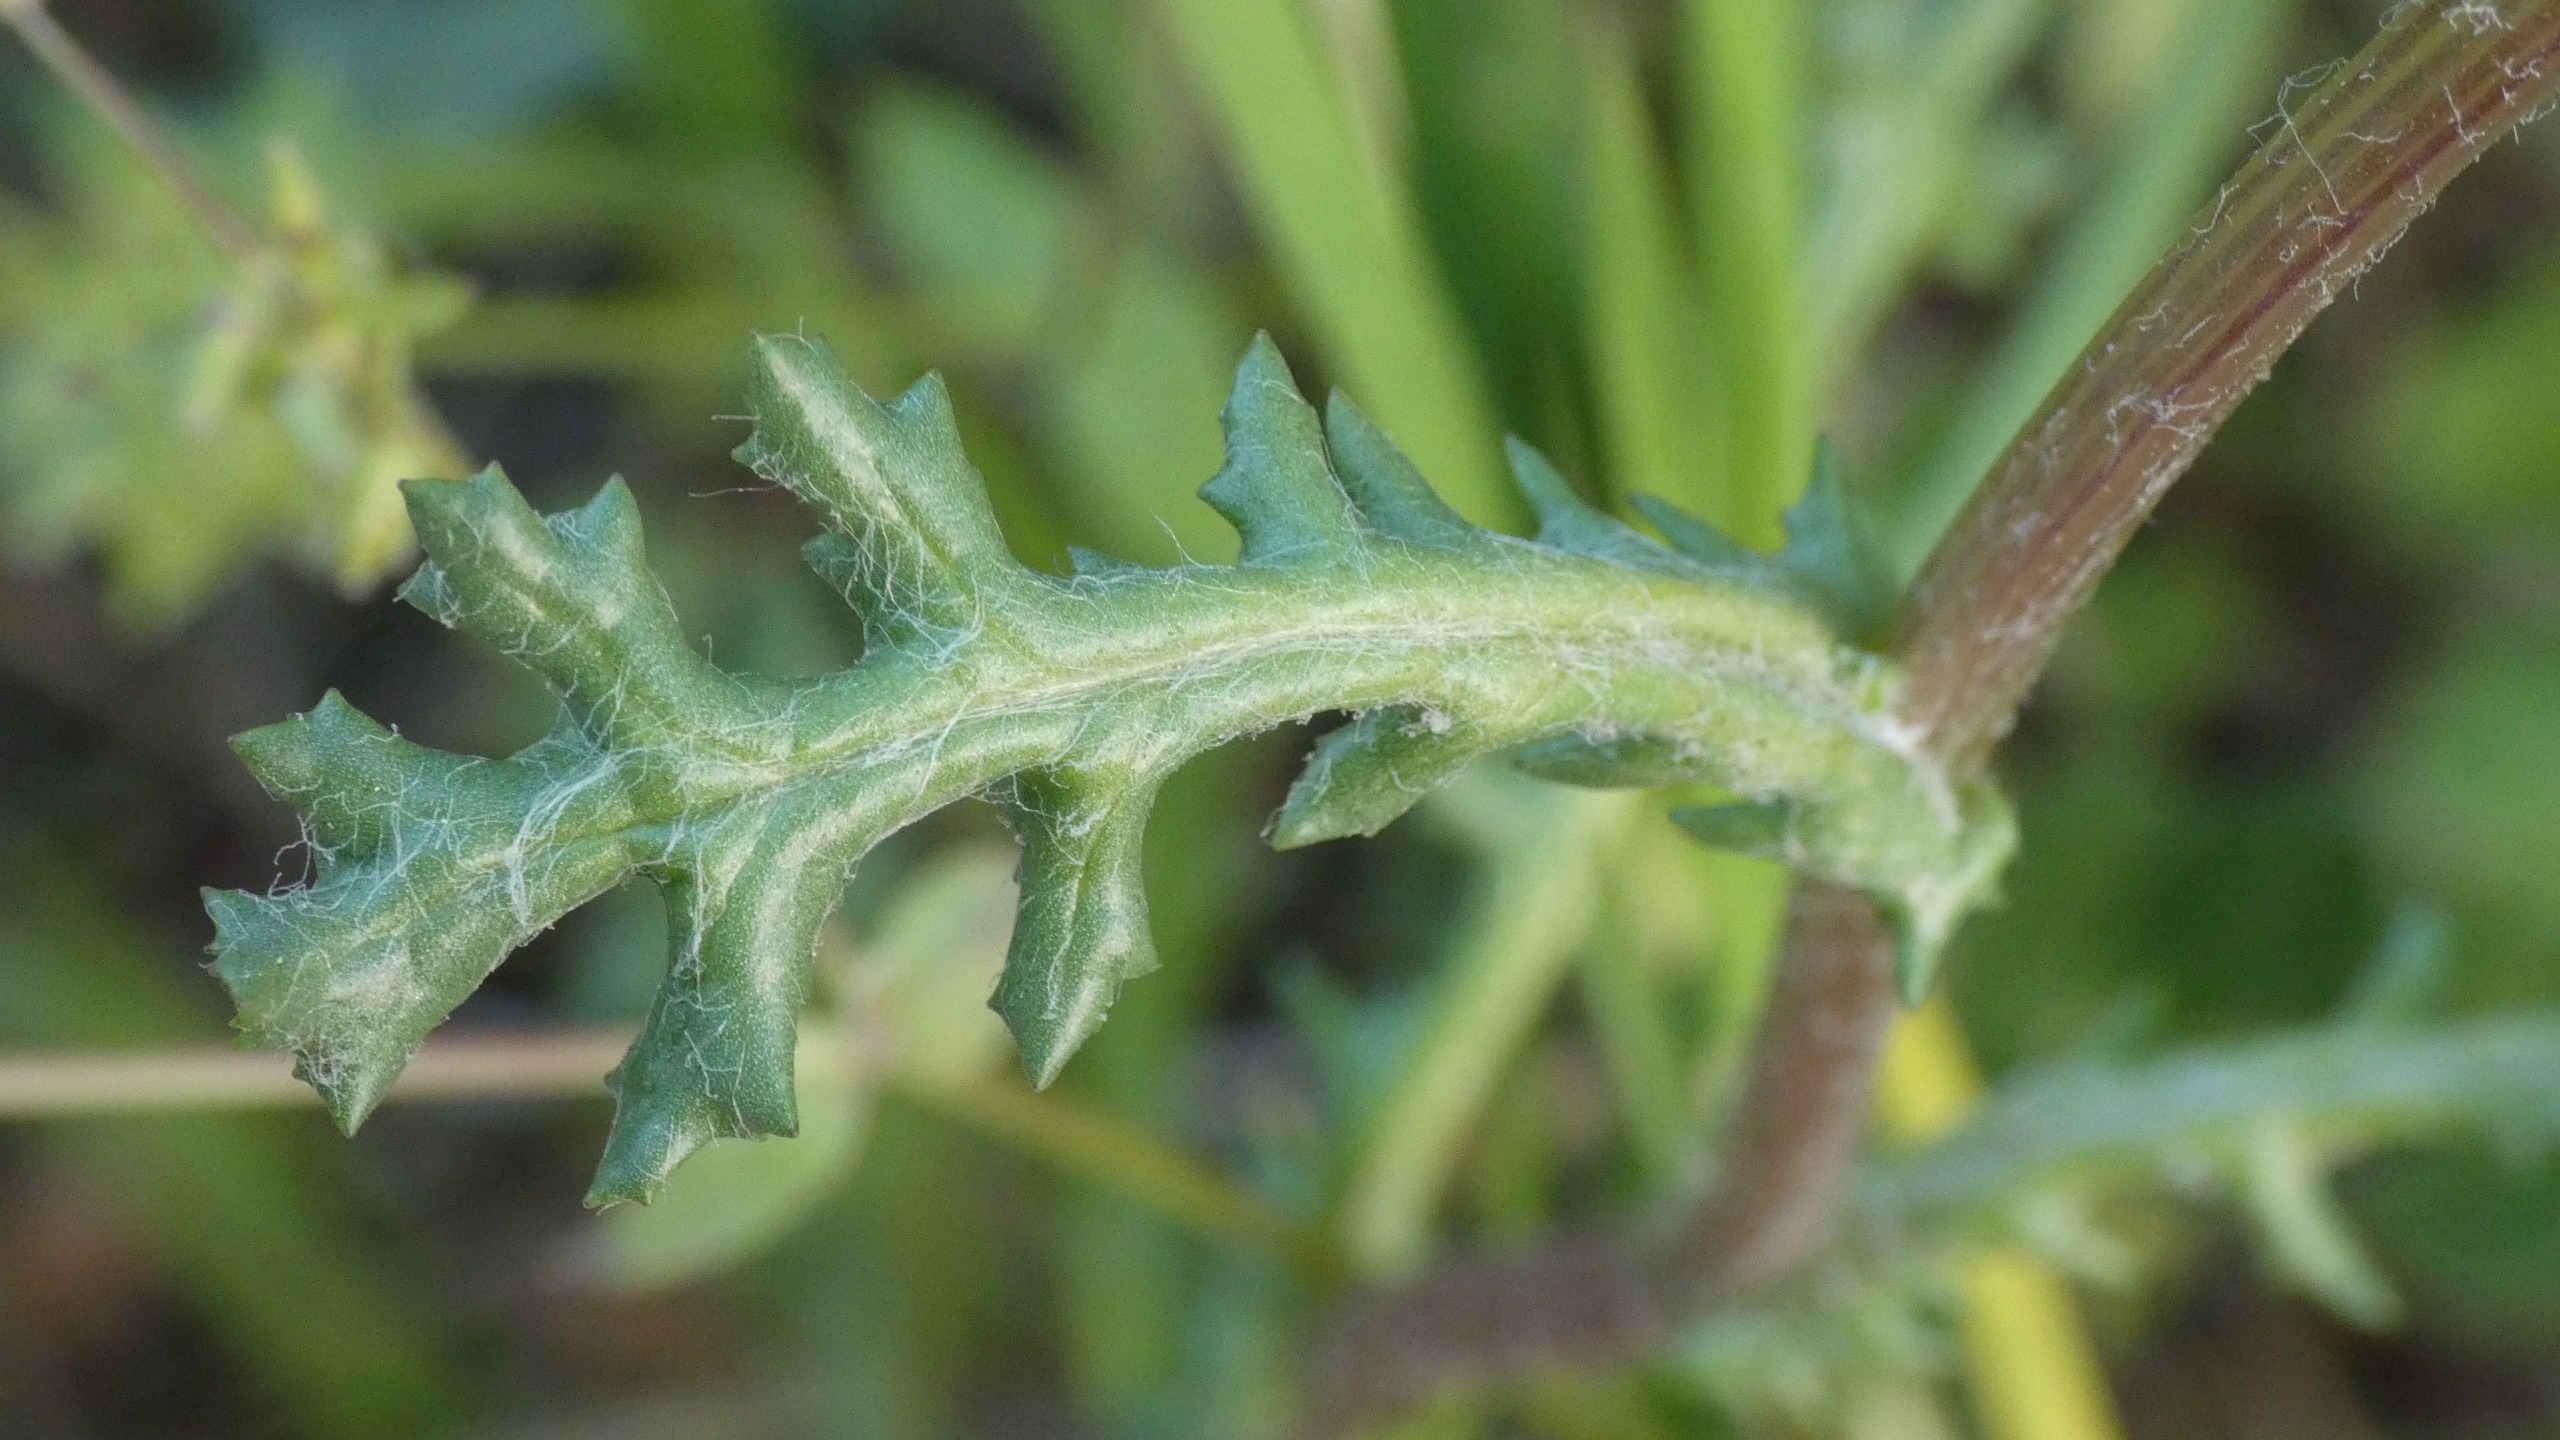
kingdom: Plantae
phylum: Tracheophyta
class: Magnoliopsida
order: Asterales
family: Asteraceae
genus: Senecio
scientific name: Senecio vulgaris
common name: Almindelig brandbæger
